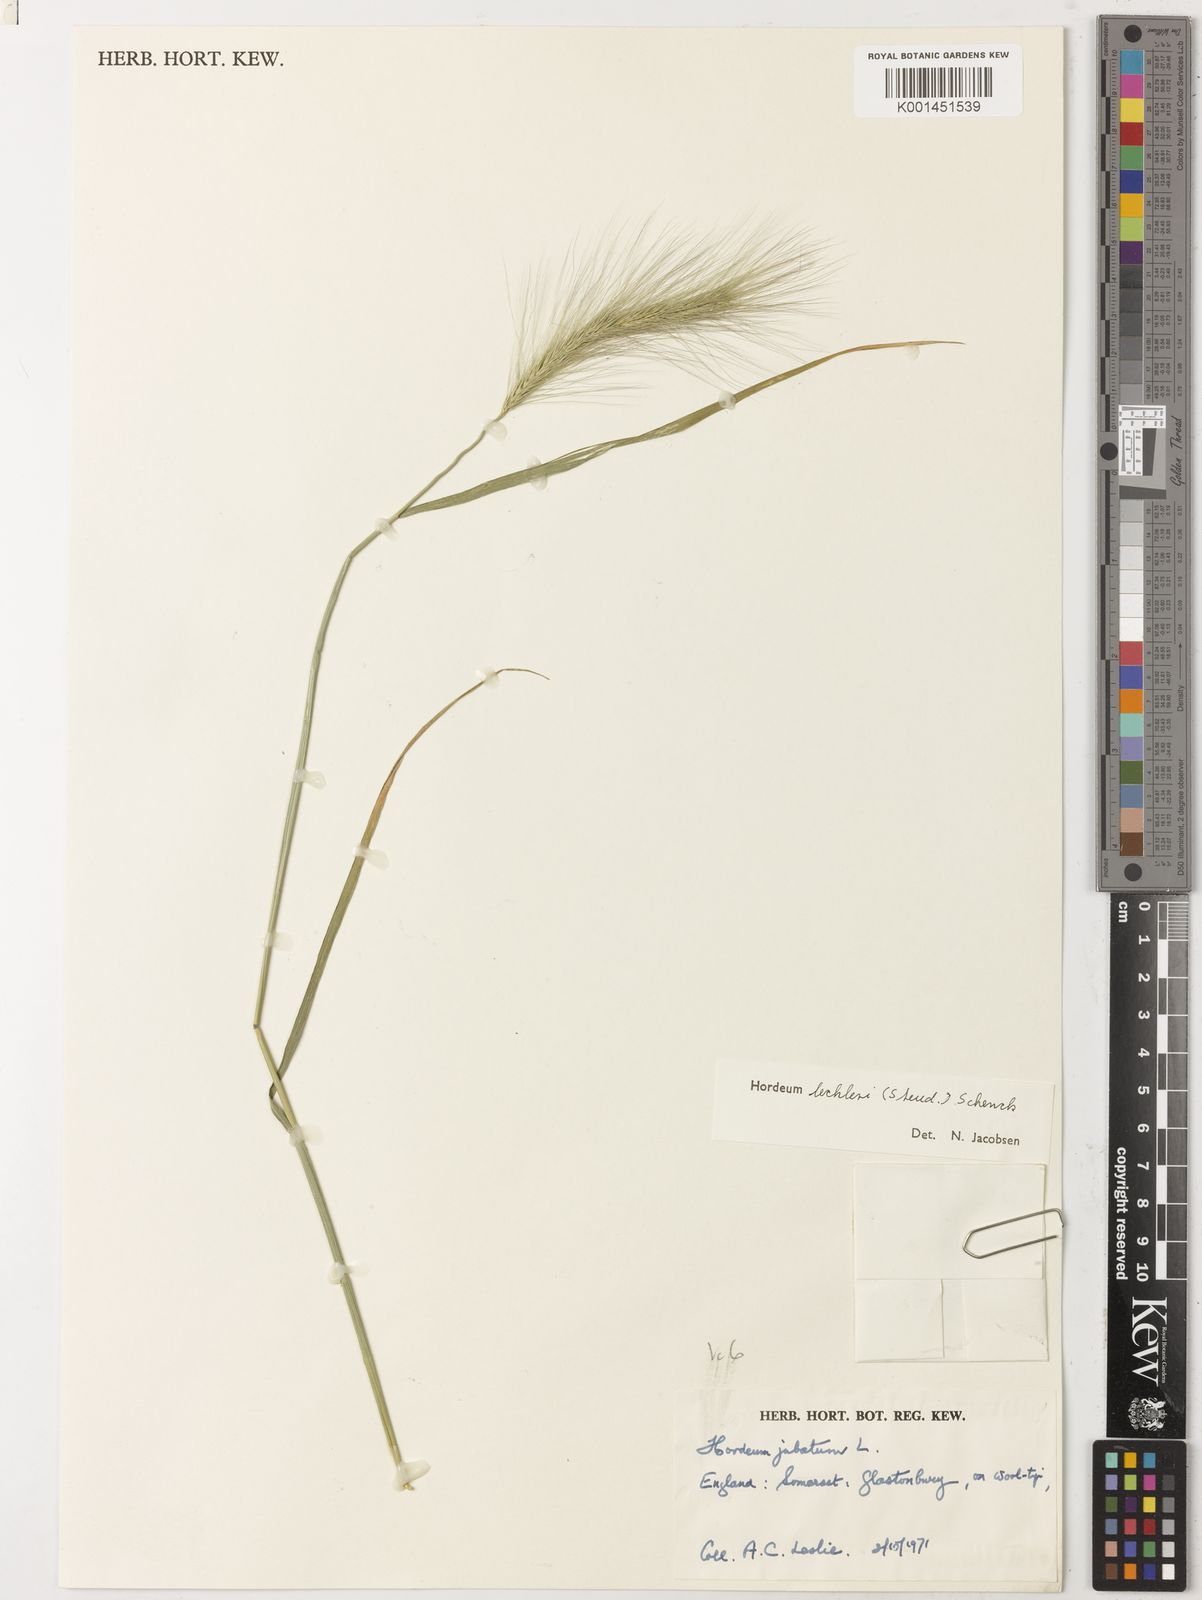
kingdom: Plantae
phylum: Tracheophyta
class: Liliopsida
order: Poales
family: Poaceae
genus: Hordeum
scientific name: Hordeum lechleri
